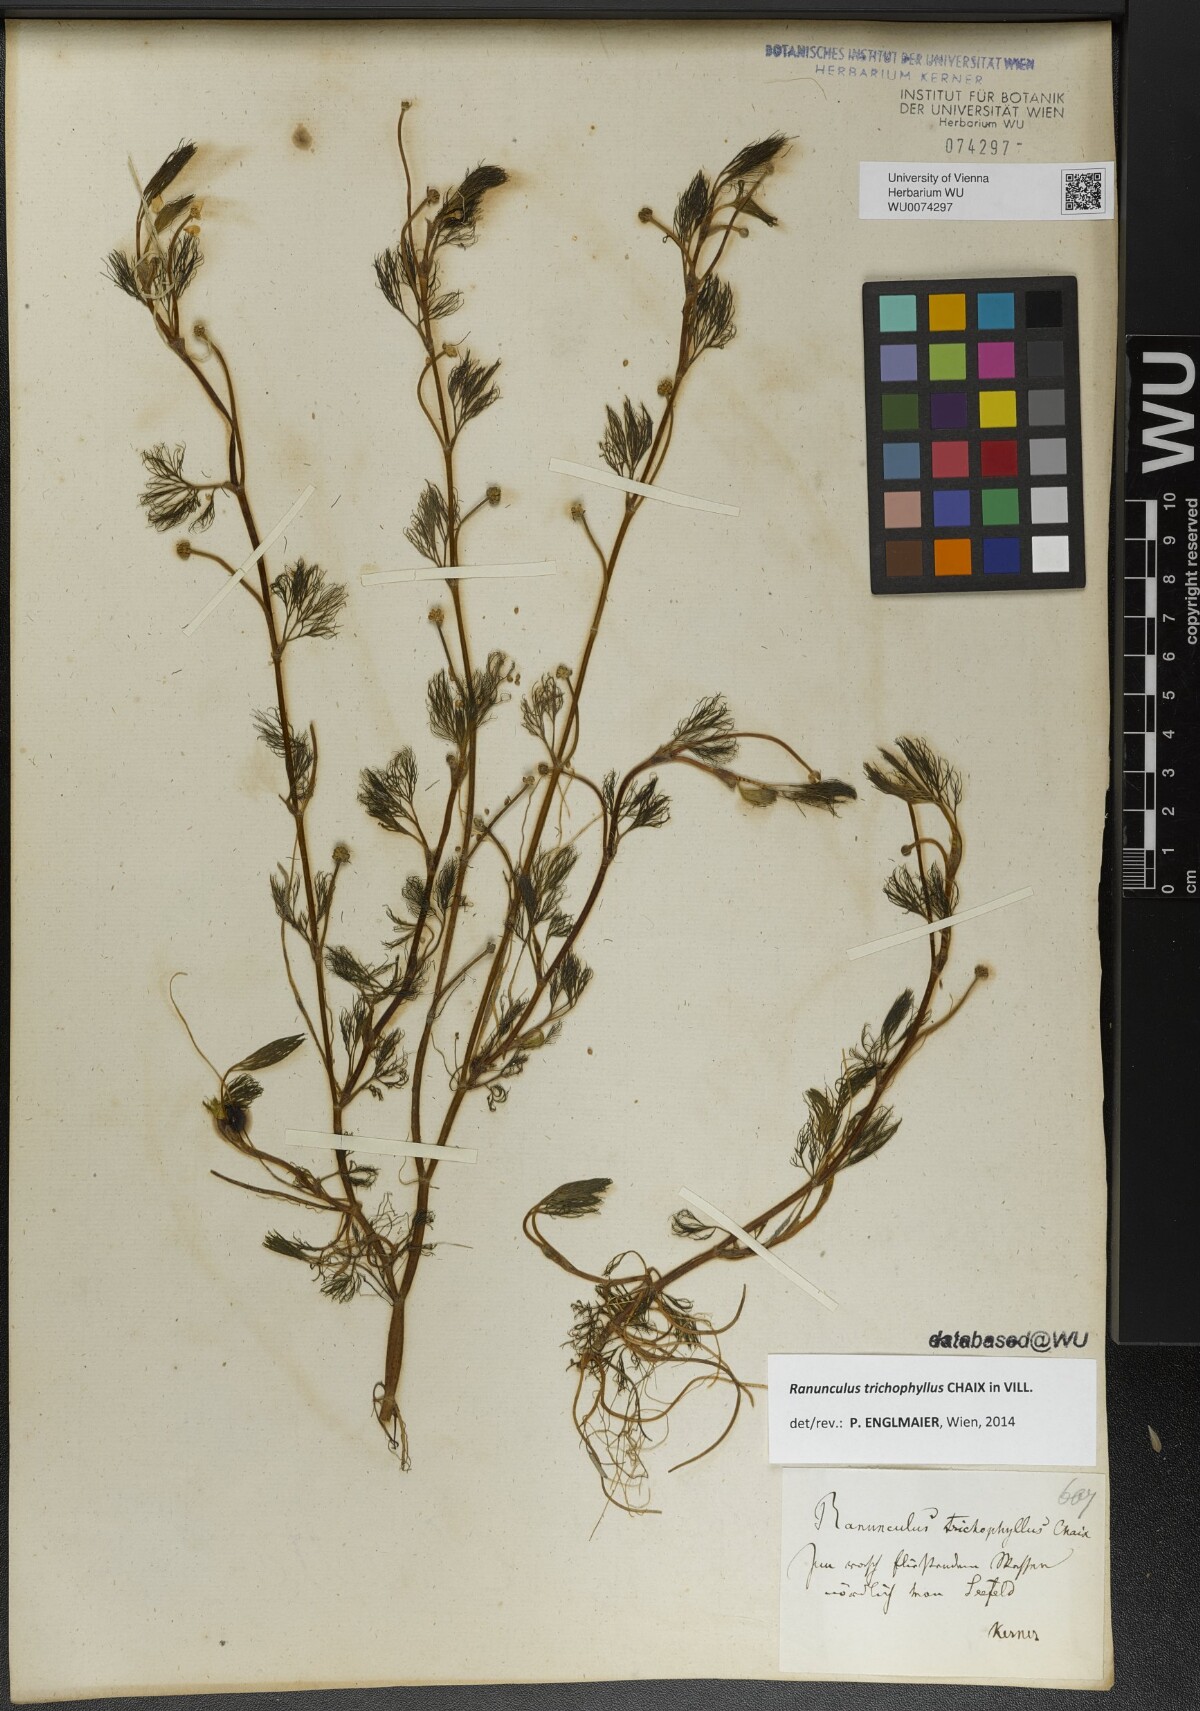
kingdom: Plantae
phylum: Tracheophyta
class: Magnoliopsida
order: Ranunculales
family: Ranunculaceae
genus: Ranunculus
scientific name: Ranunculus trichophyllus
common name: Thread-leaved water-crowfoot
